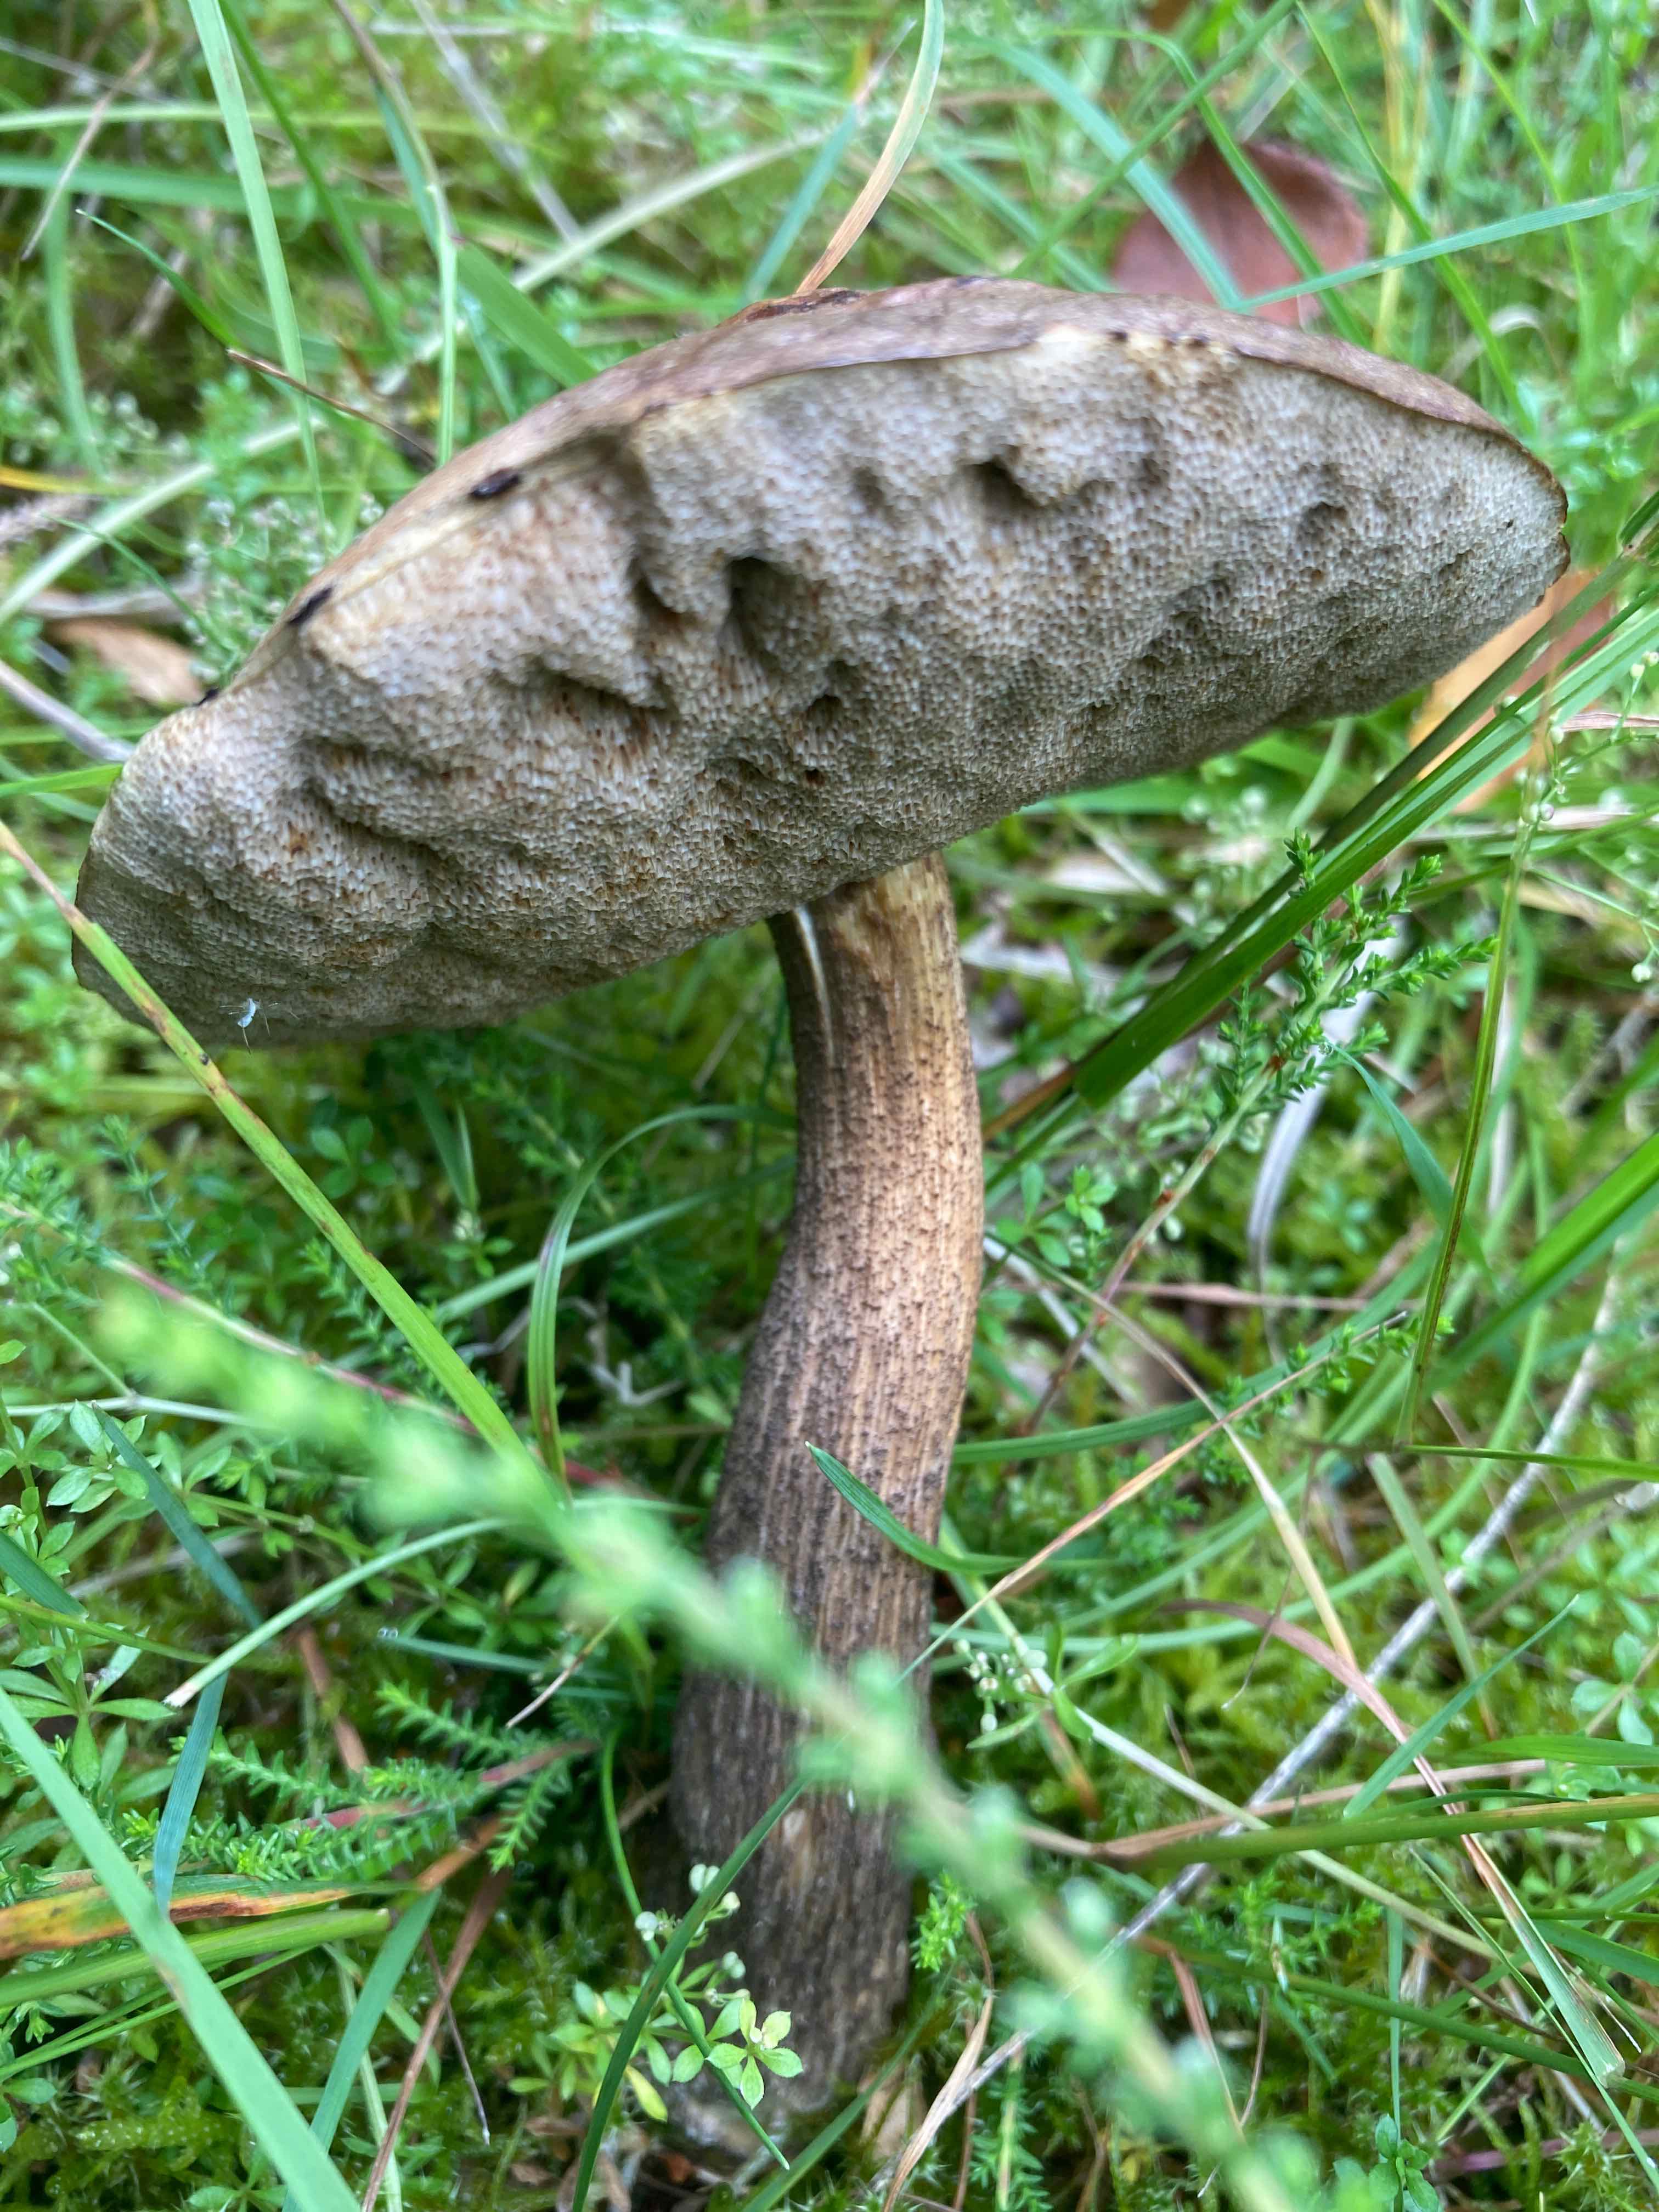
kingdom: Fungi
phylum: Basidiomycota
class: Agaricomycetes
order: Boletales
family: Boletaceae
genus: Leccinum
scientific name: Leccinum scabrum
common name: brun skælrørhat
